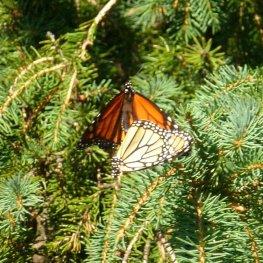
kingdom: Animalia
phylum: Arthropoda
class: Insecta
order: Lepidoptera
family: Nymphalidae
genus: Danaus
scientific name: Danaus plexippus
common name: Monarch
